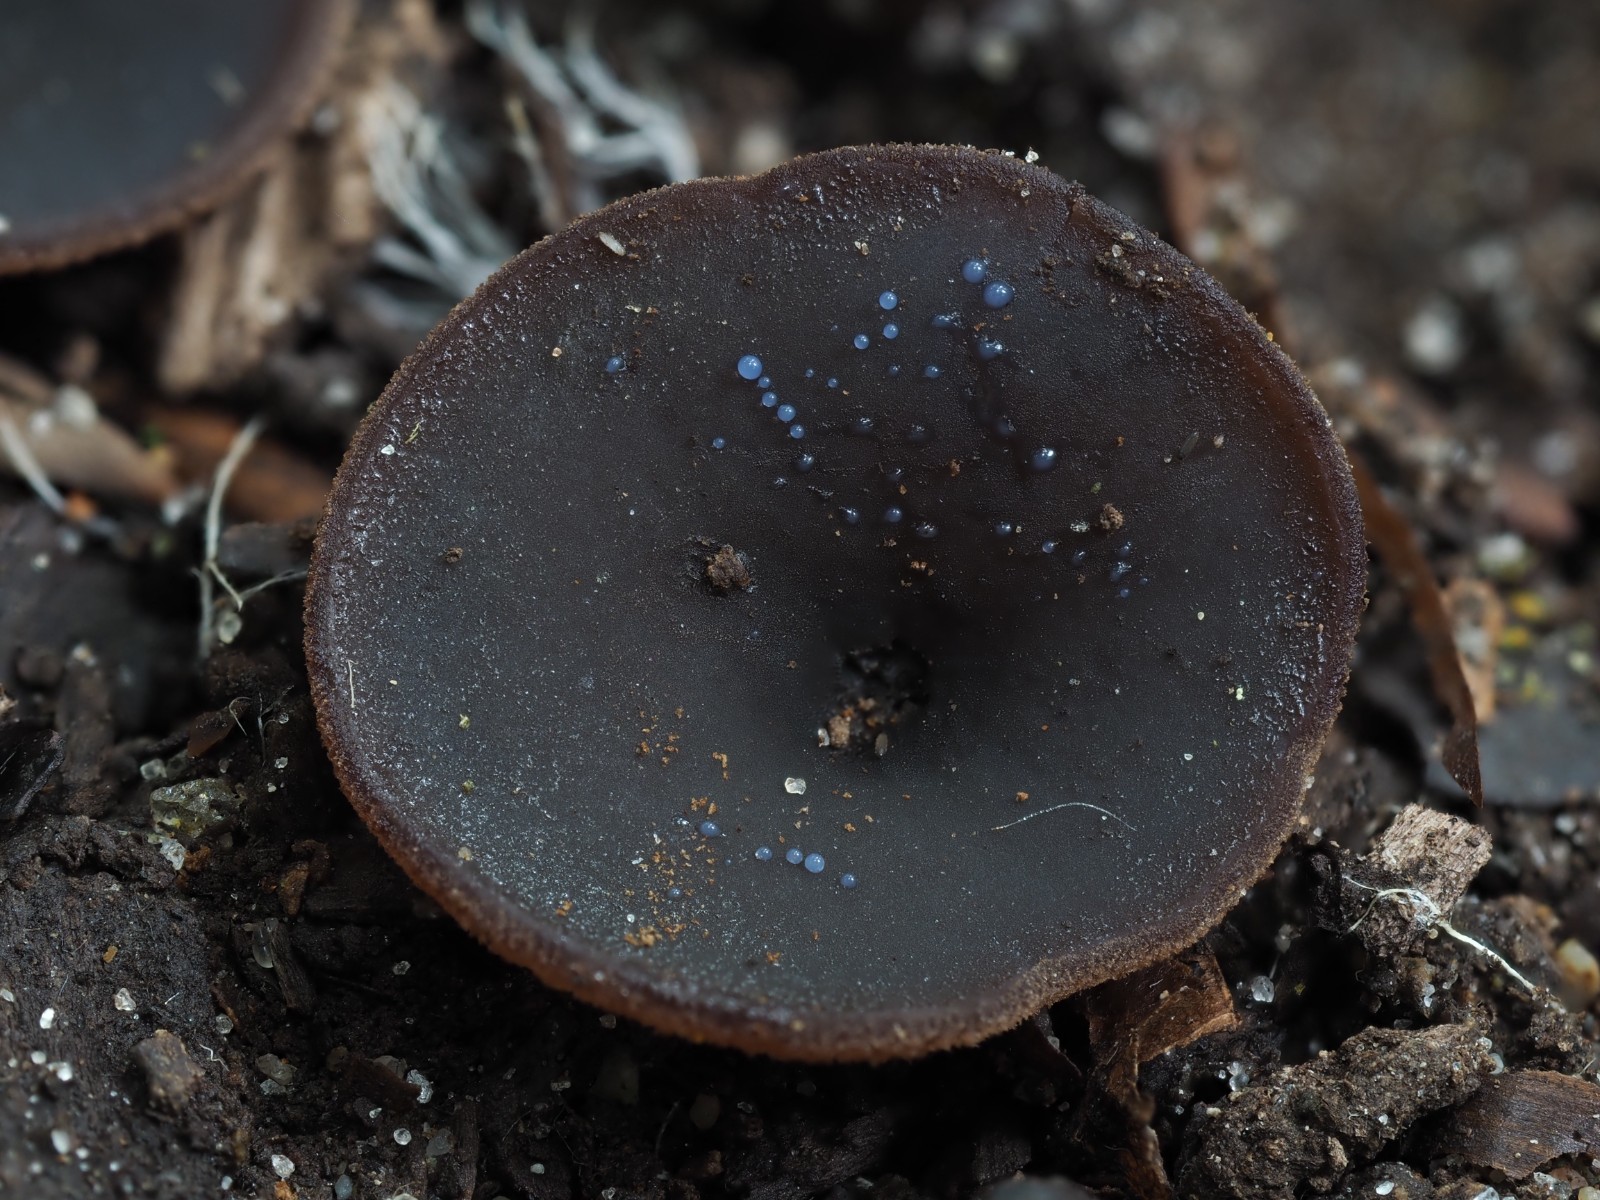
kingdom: Fungi
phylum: Ascomycota
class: Pezizomycetes
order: Pezizales
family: Pezizaceae
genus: Peziza
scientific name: Peziza saniosa
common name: blåmælket bægersvamp
